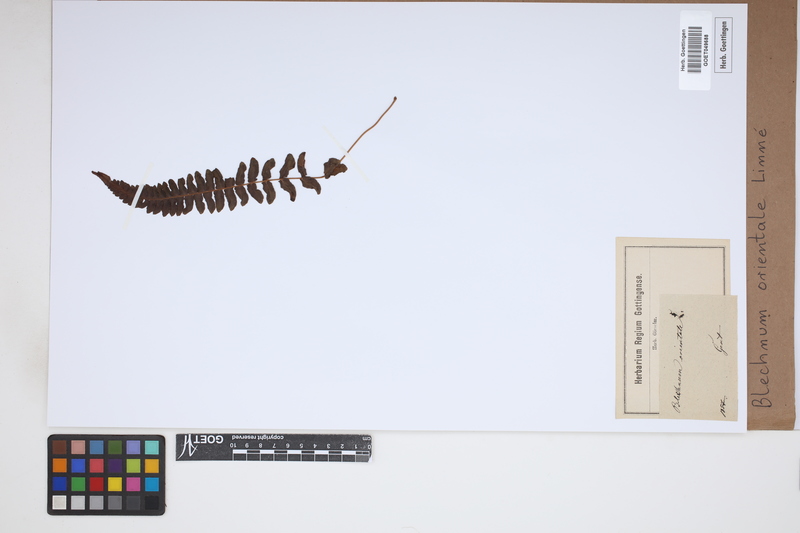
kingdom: Plantae
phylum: Tracheophyta
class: Polypodiopsida
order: Polypodiales
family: Blechnaceae
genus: Blechnopsis
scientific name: Blechnopsis orientalis
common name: Oriental blechnum
